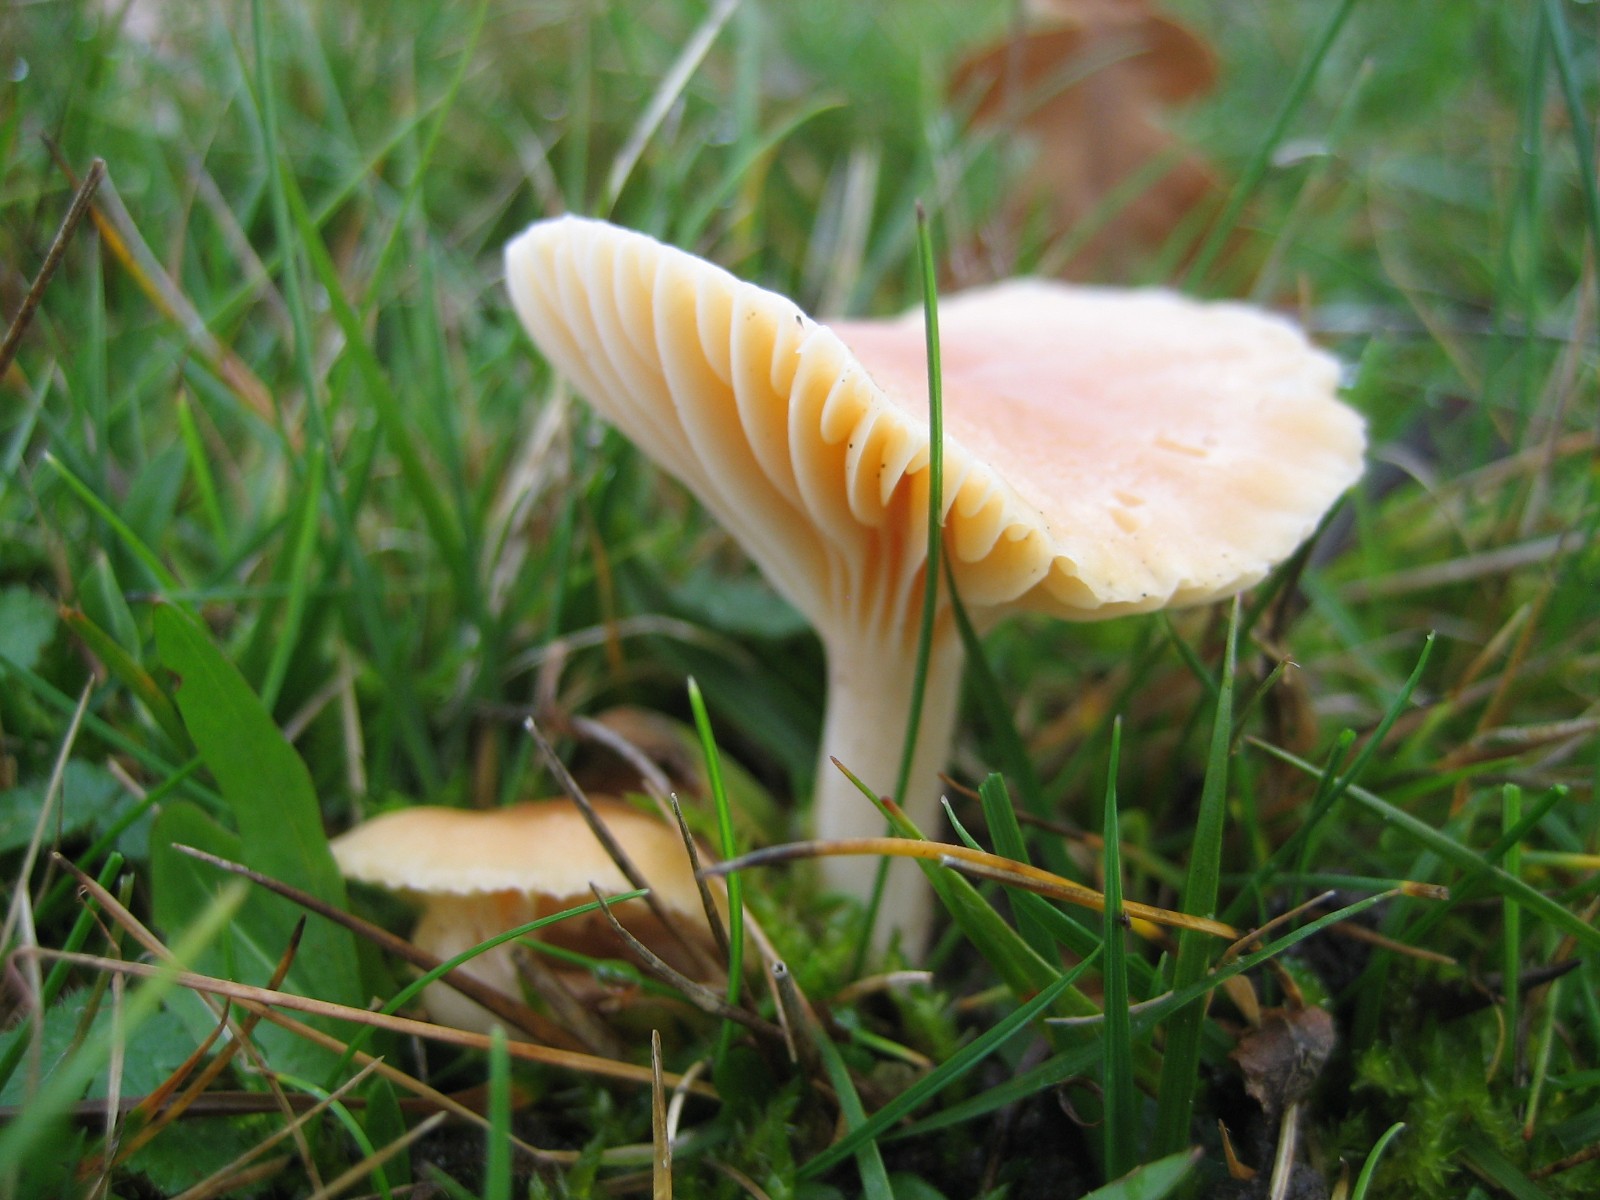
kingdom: Fungi
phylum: Basidiomycota
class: Agaricomycetes
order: Agaricales
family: Hygrophoraceae
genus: Cuphophyllus
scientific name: Cuphophyllus pratensis
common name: eng-vokshat
